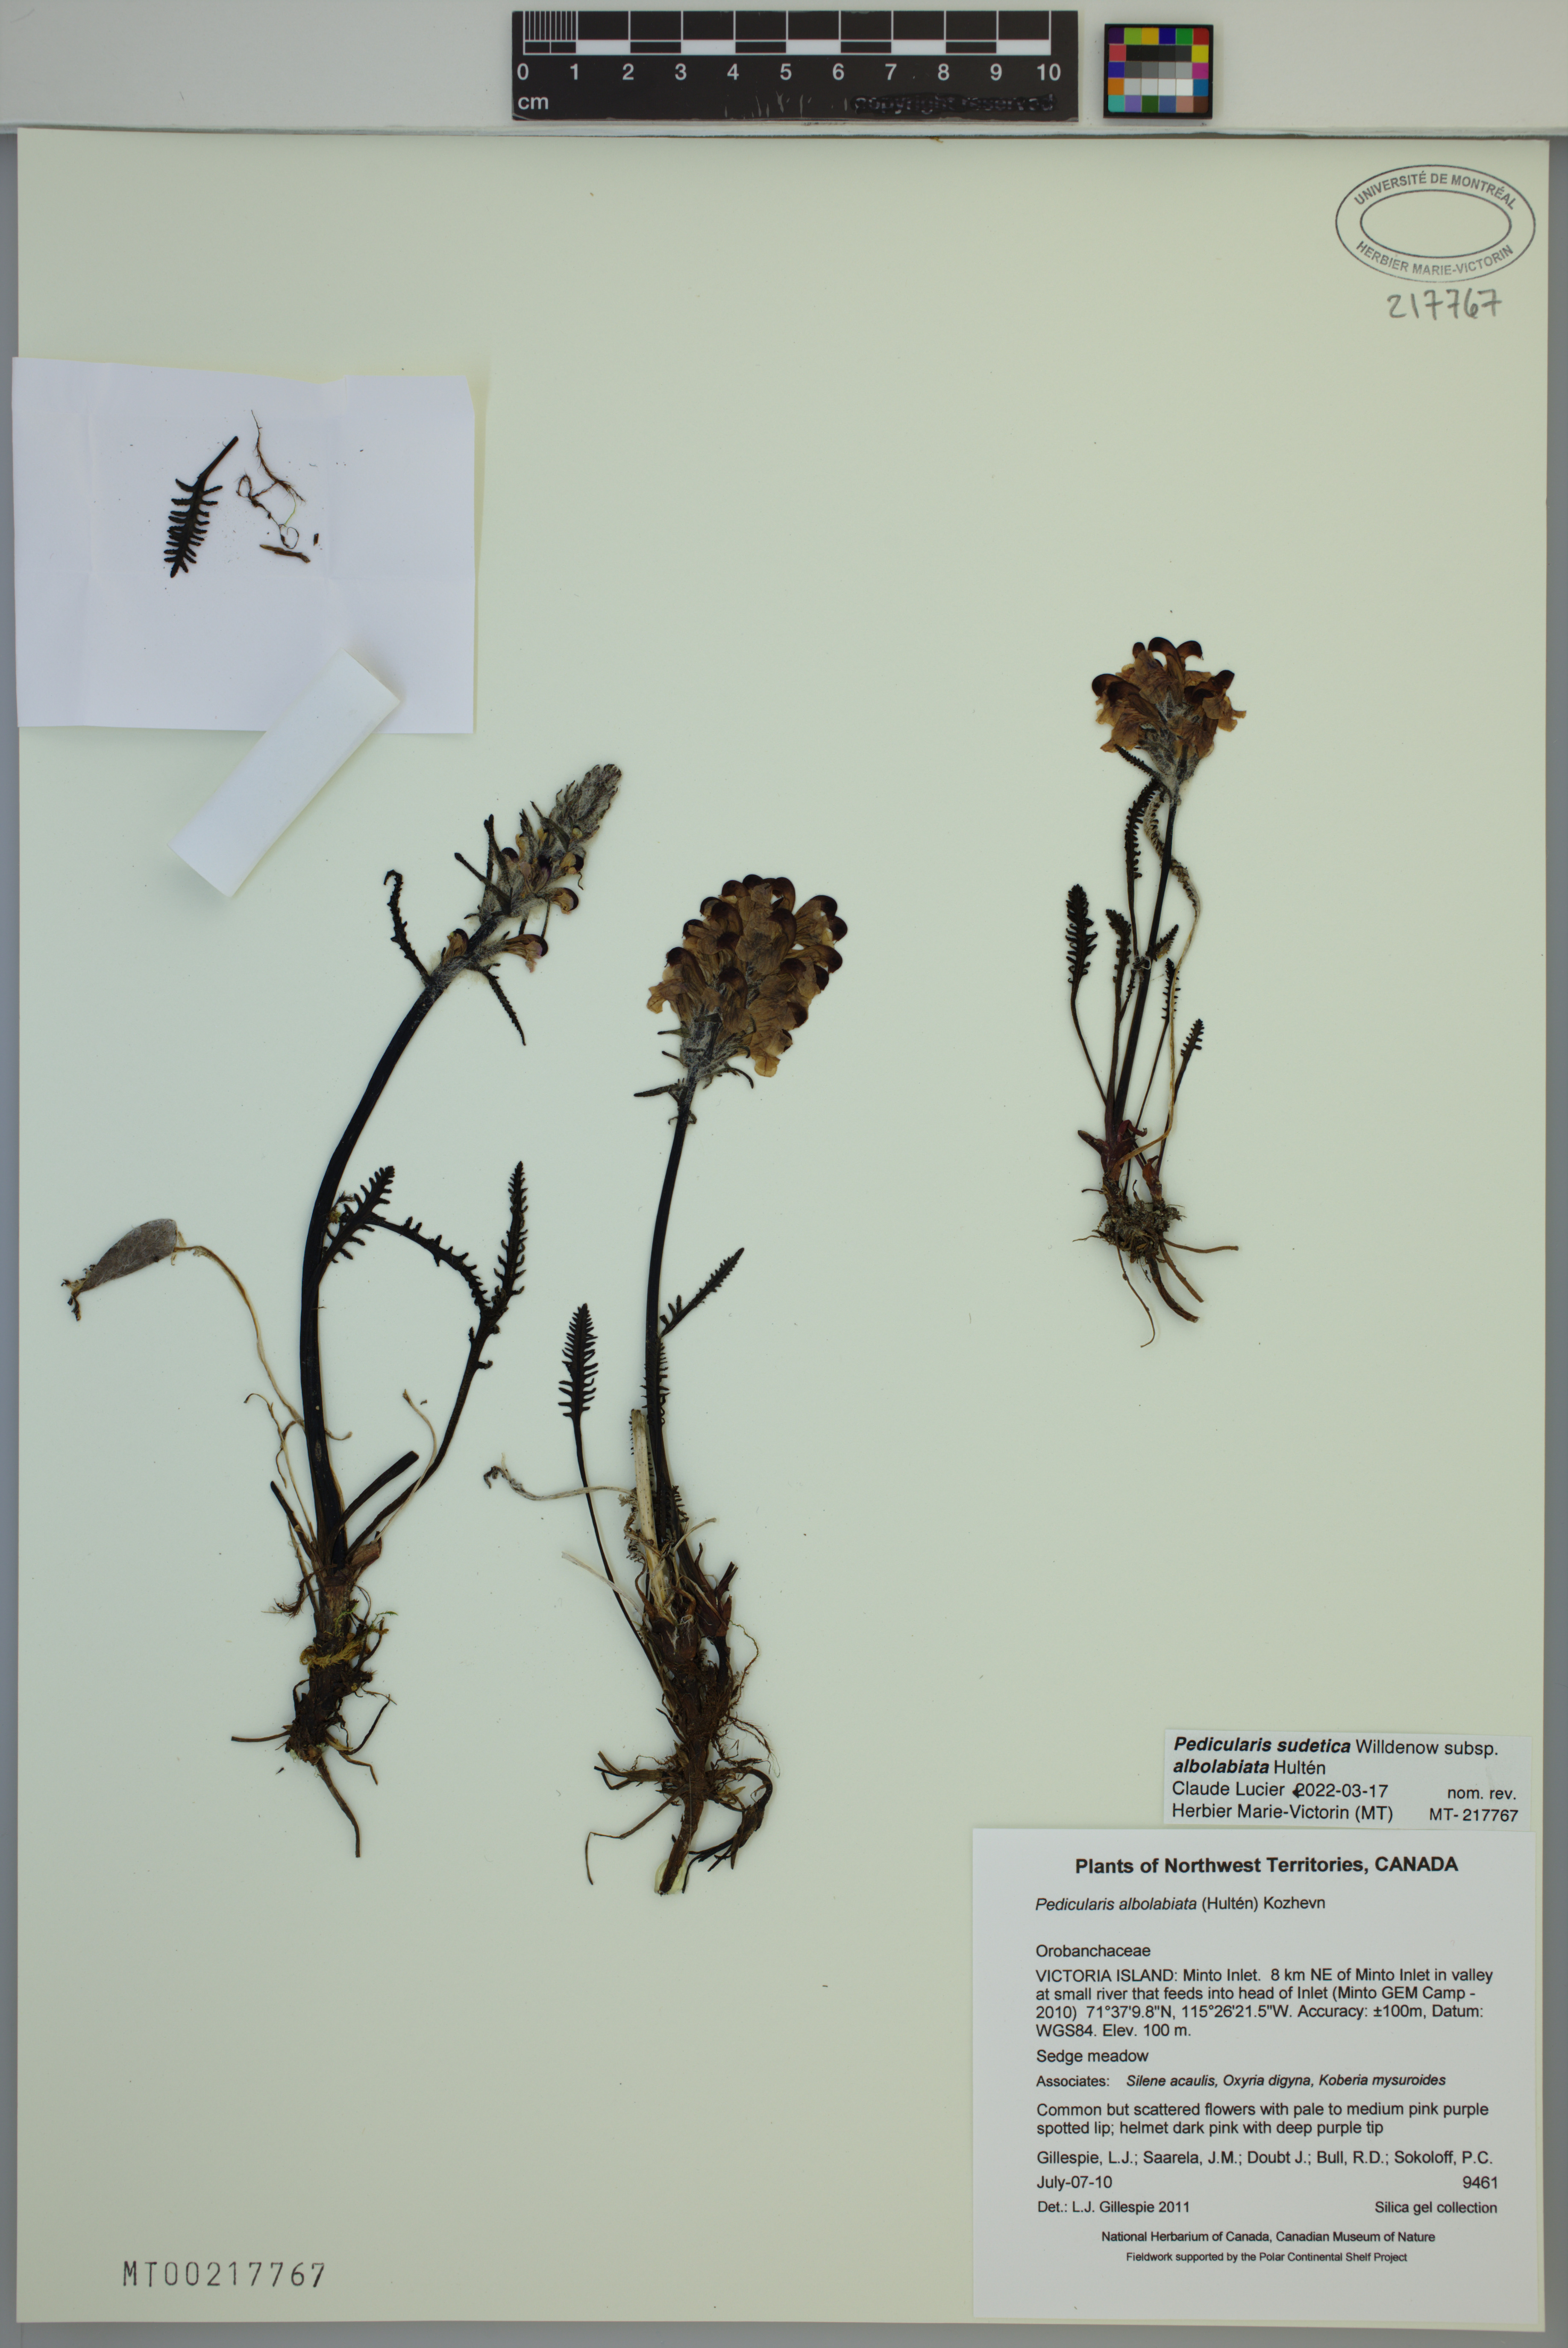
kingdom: Plantae
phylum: Tracheophyta
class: Magnoliopsida
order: Lamiales
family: Orobanchaceae
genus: Pedicularis
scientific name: Pedicularis novaiae-zemliae
